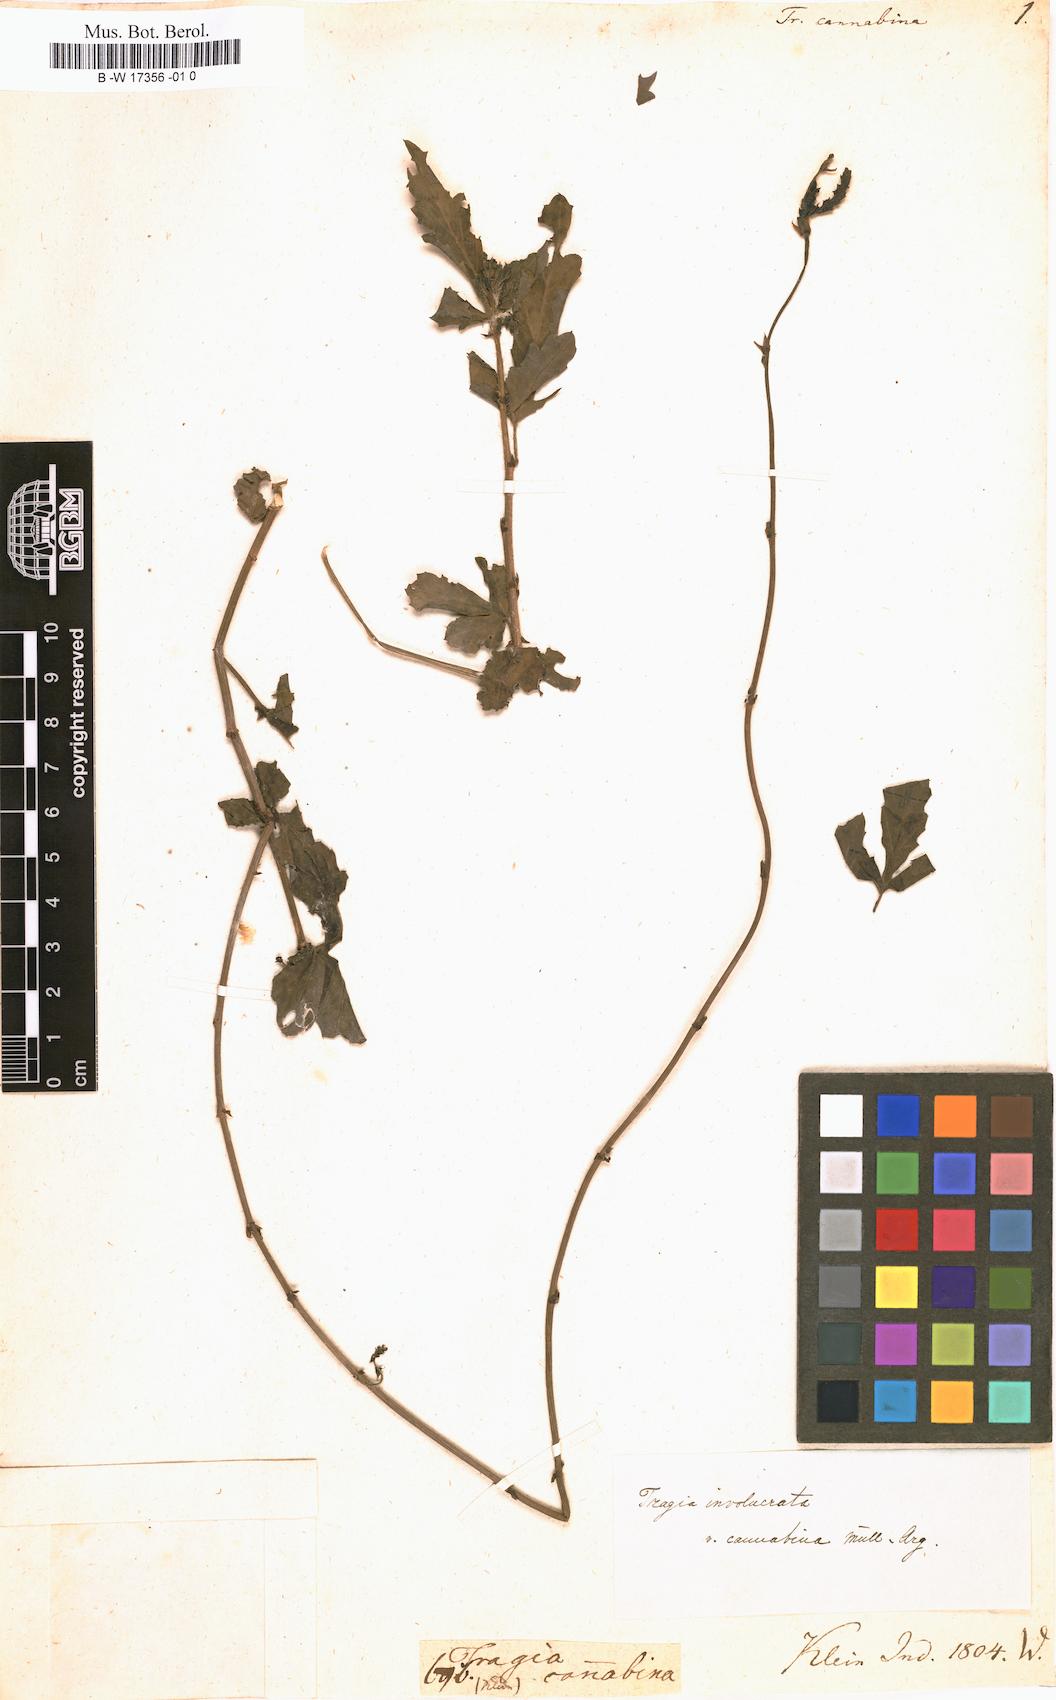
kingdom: Plantae
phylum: Tracheophyta
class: Magnoliopsida
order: Malpighiales
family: Euphorbiaceae
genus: Tragia
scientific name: Tragia plukenetii
